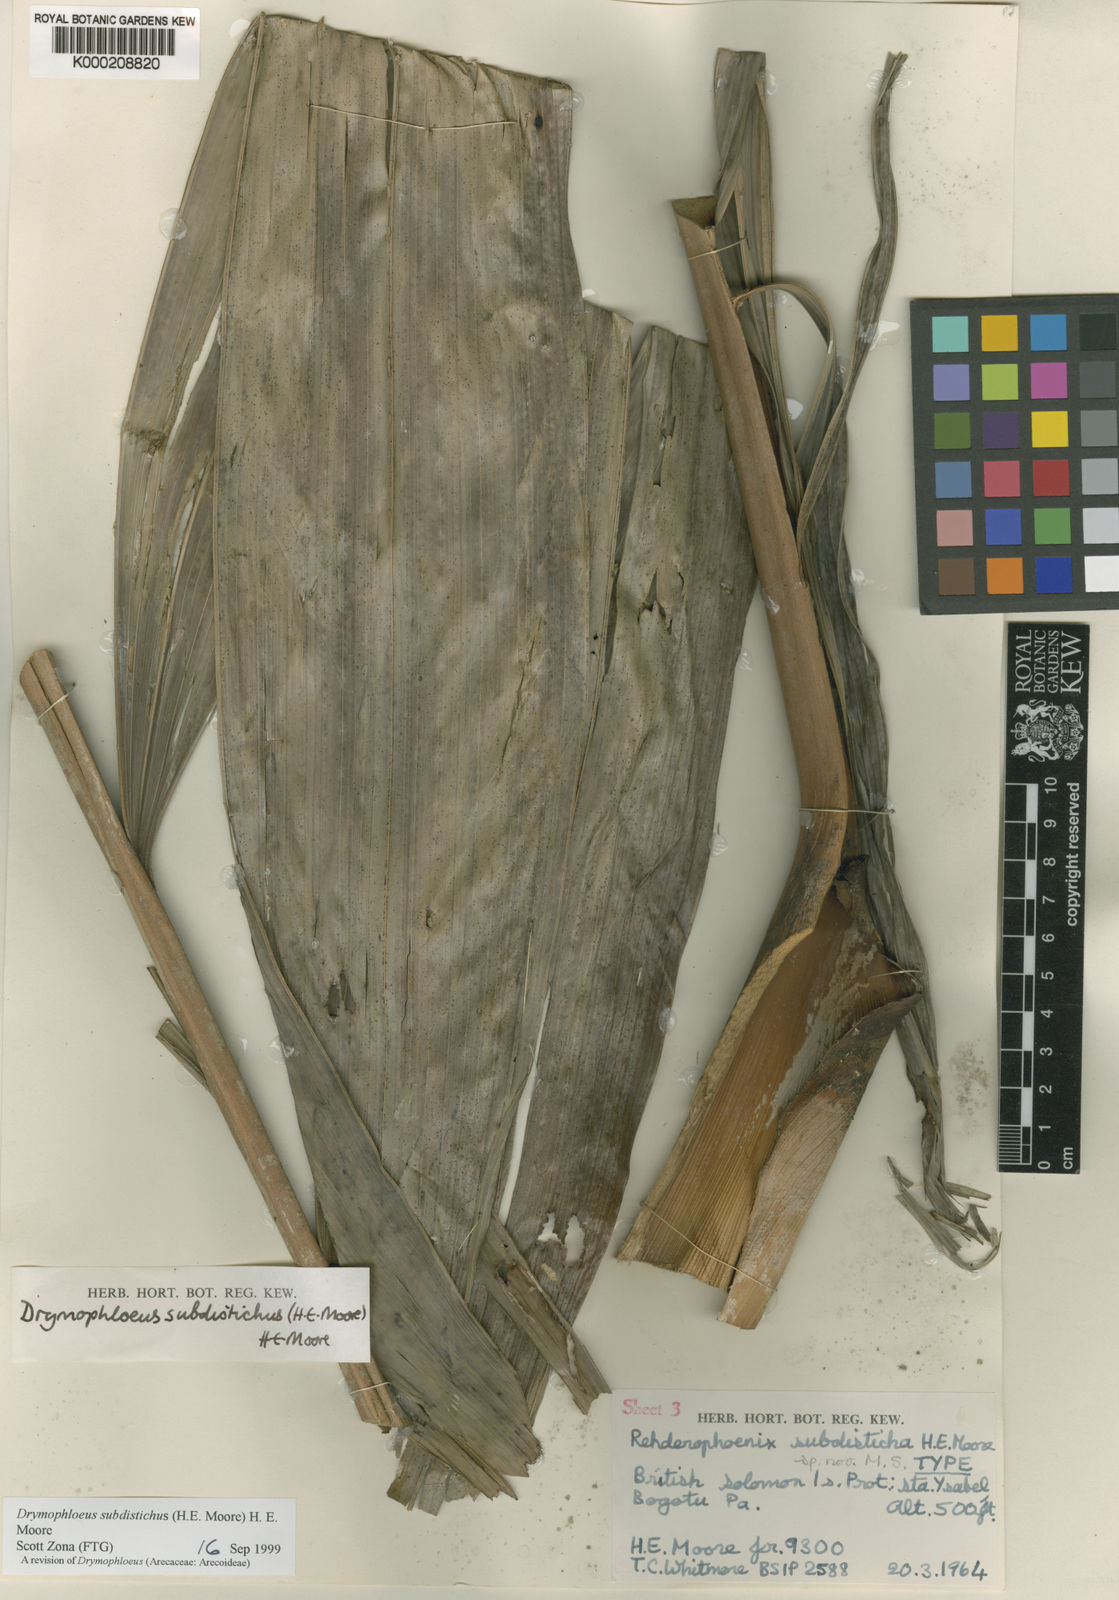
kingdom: Plantae
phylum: Tracheophyta
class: Liliopsida
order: Arecales
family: Arecaceae
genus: Veitchia
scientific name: Veitchia subdisticha
